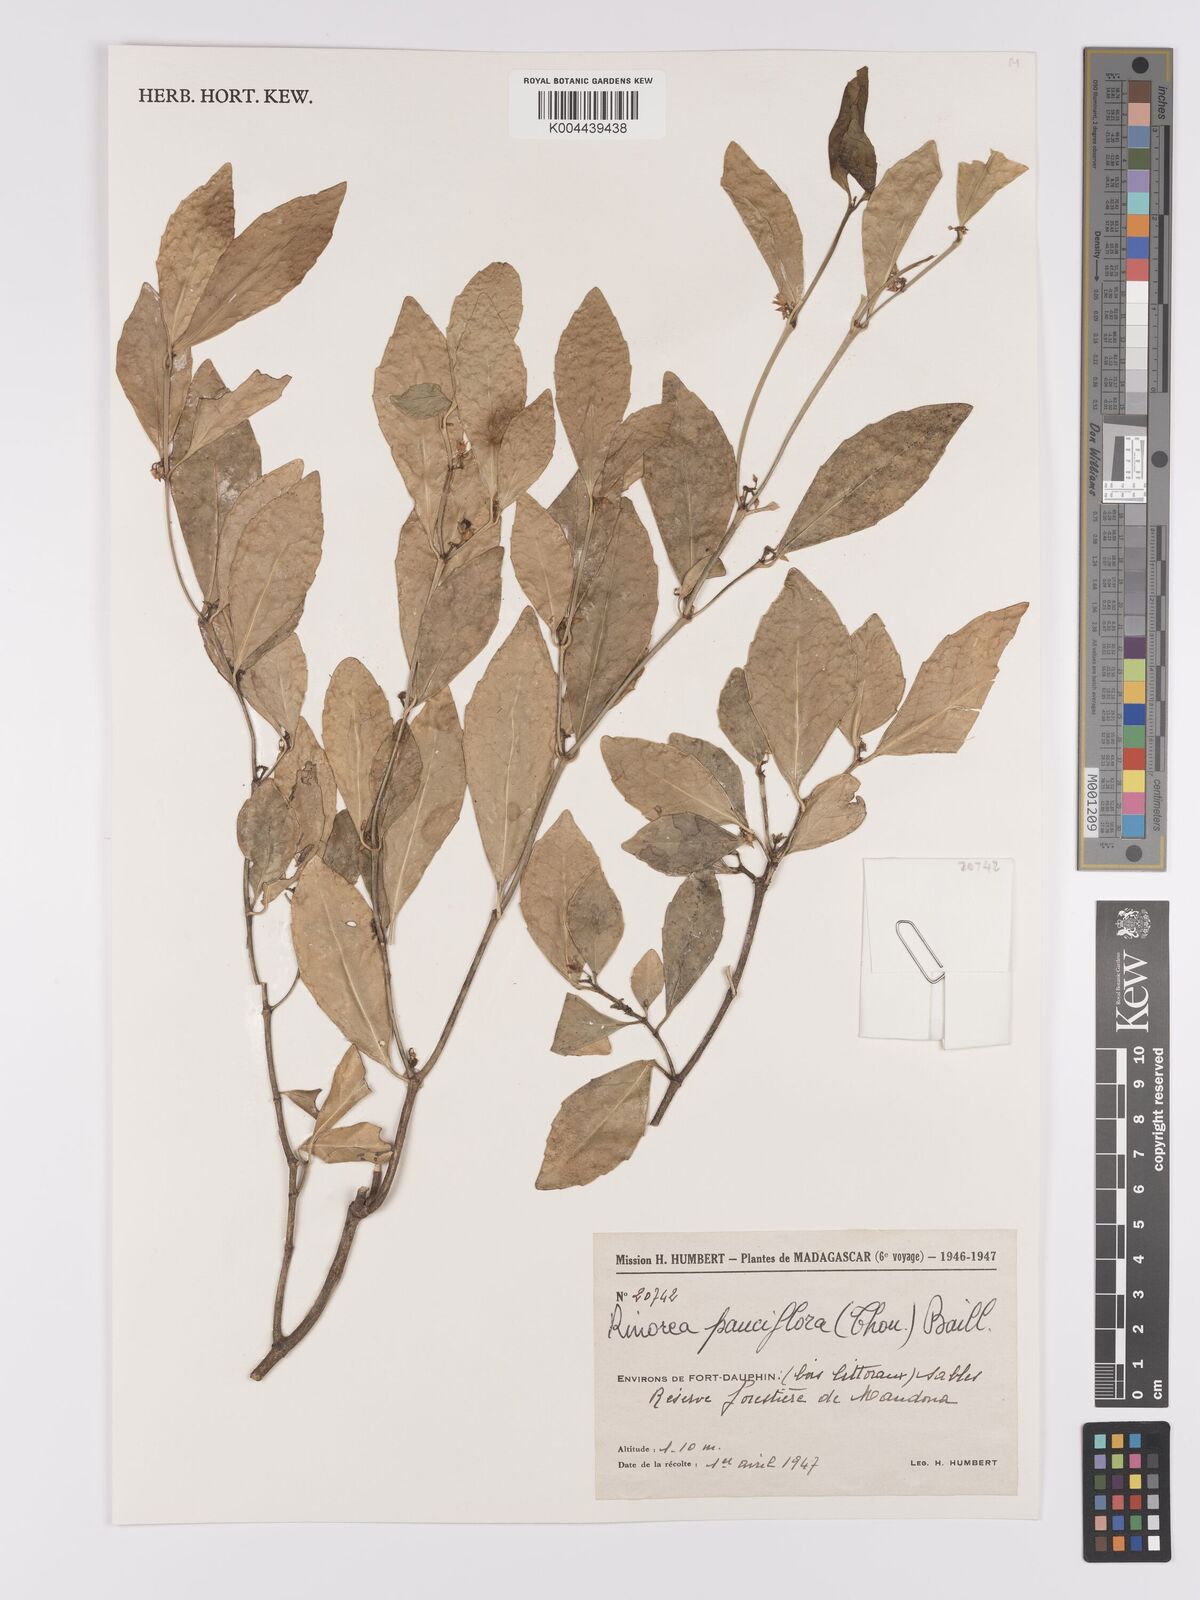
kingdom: Plantae
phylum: Tracheophyta
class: Magnoliopsida
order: Malpighiales
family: Violaceae
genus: Rinorea
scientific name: Rinorea pauciflora
